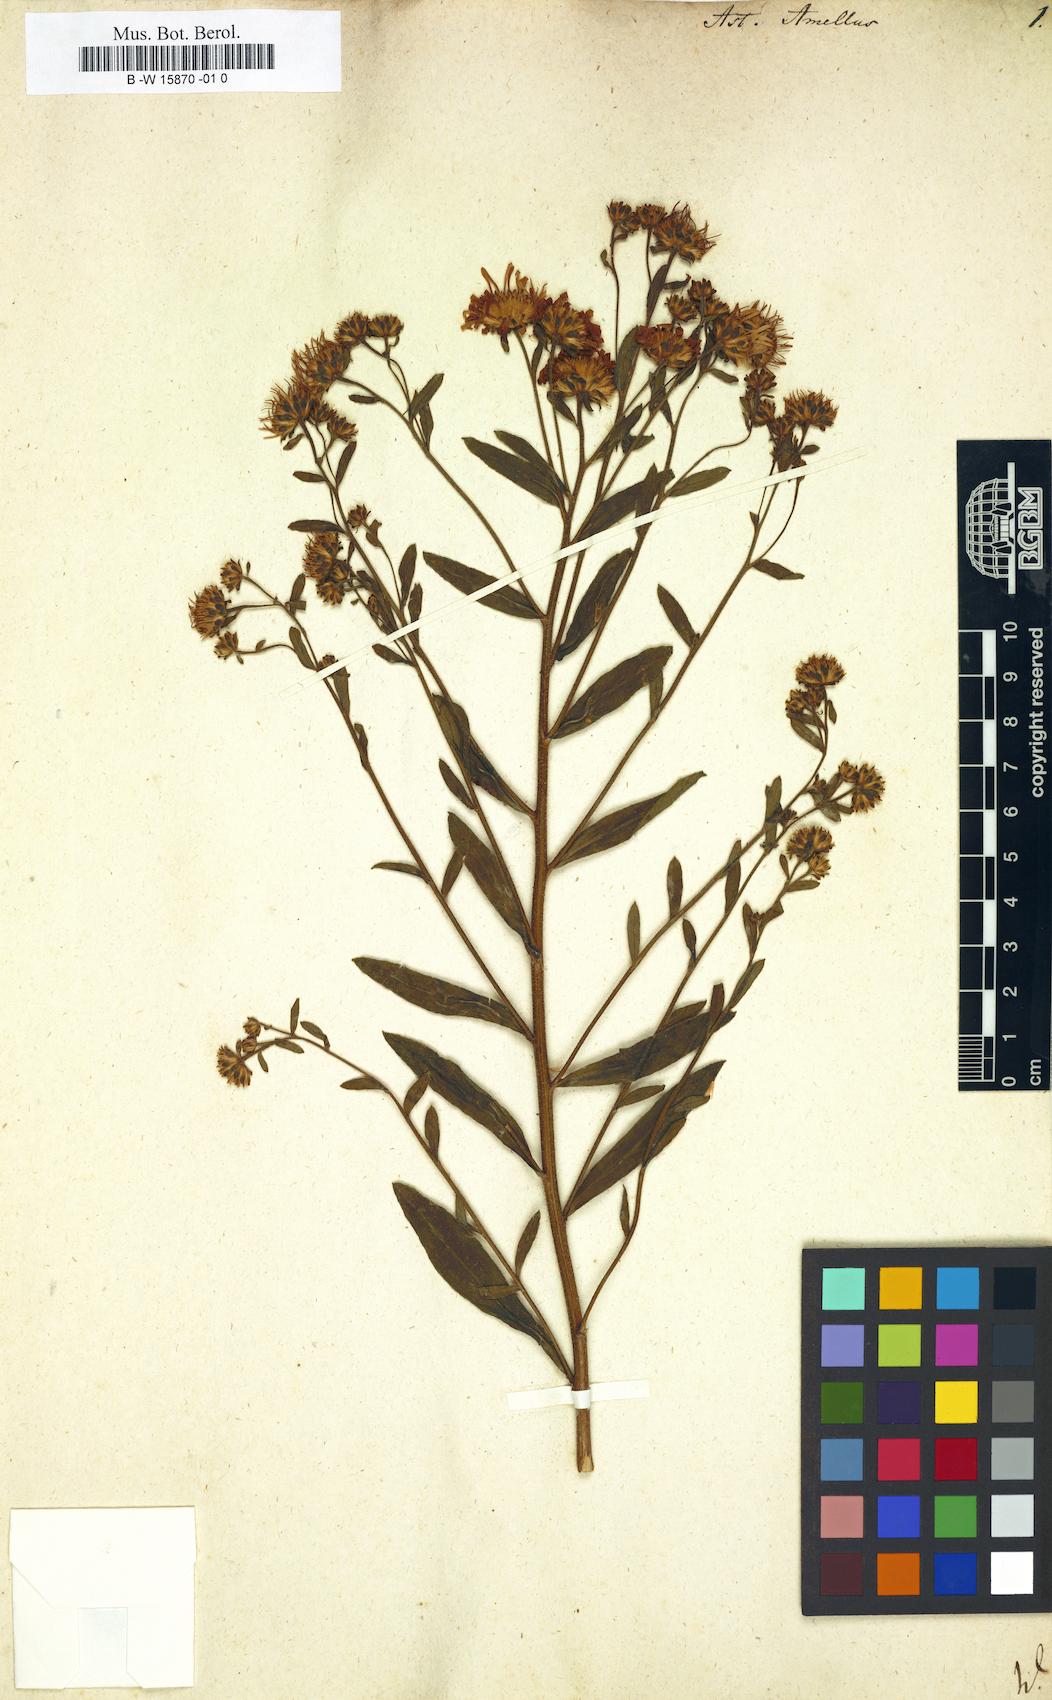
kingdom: Plantae
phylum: Tracheophyta
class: Magnoliopsida
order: Asterales
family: Asteraceae
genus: Aster
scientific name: Aster amellus
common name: European michaelmas daisy
